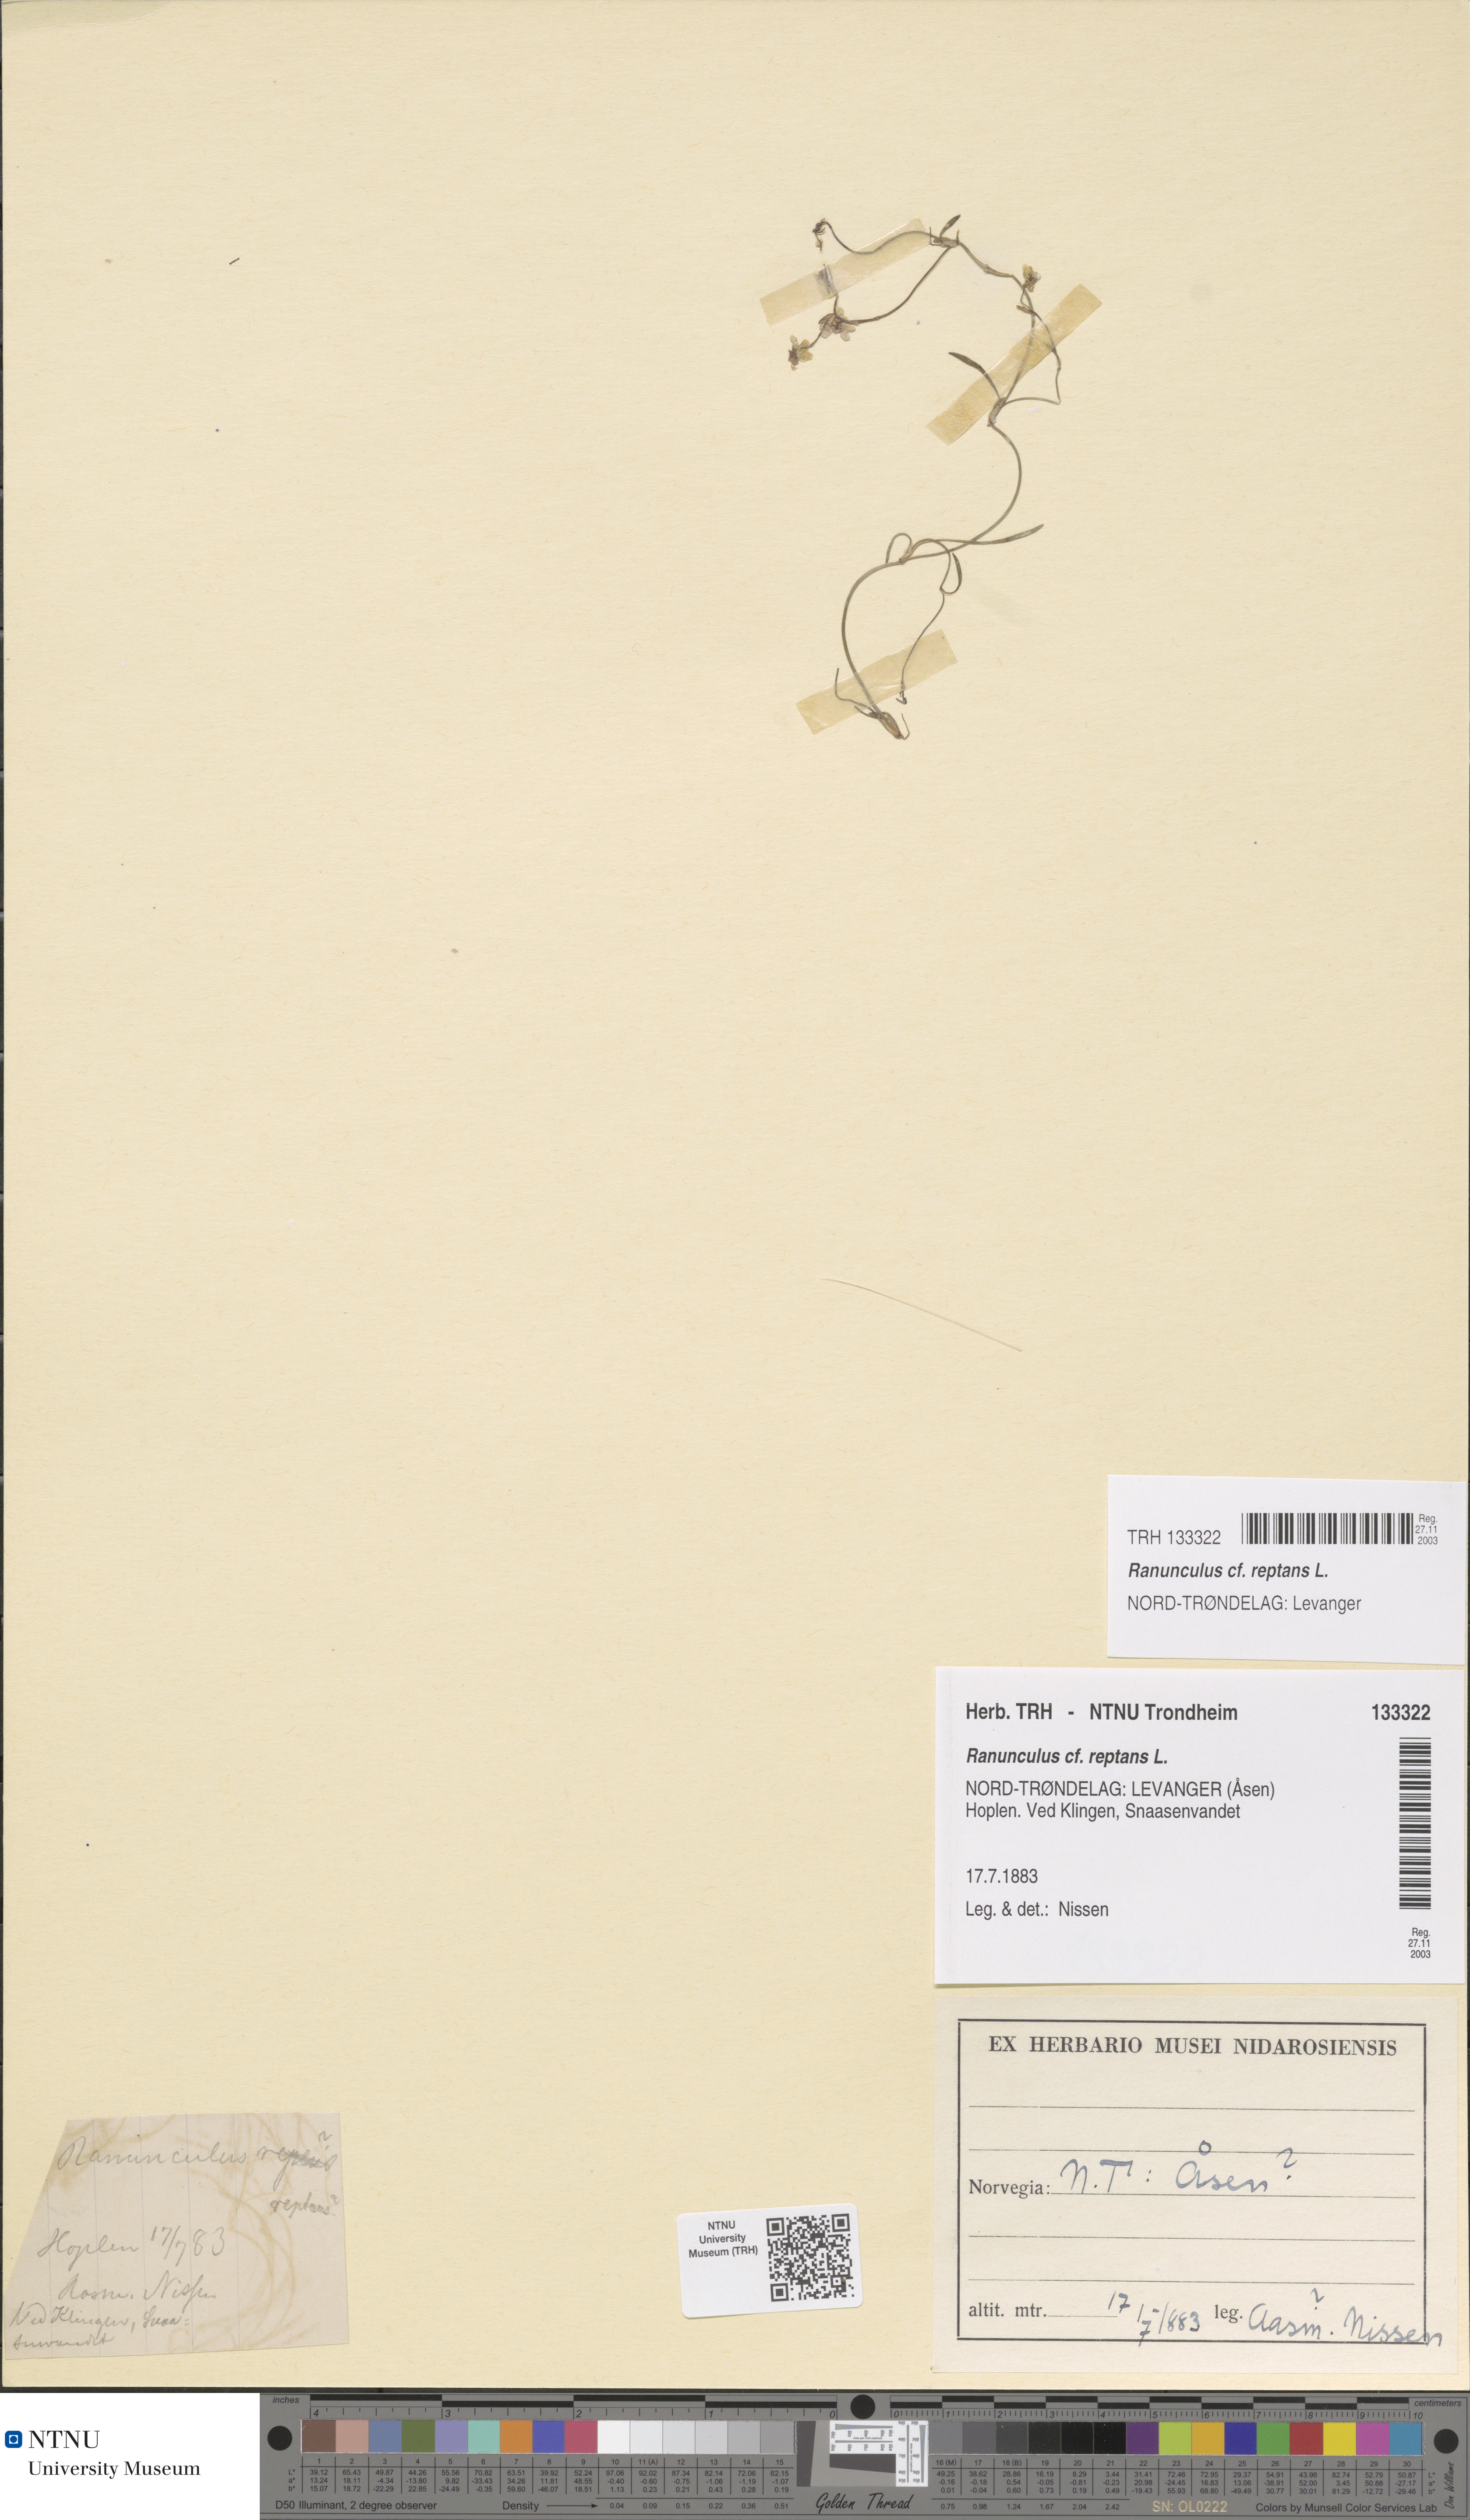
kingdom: Plantae
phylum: Tracheophyta
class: Magnoliopsida
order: Ranunculales
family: Ranunculaceae
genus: Ranunculus
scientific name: Ranunculus reptans
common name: Creeping spearwort
